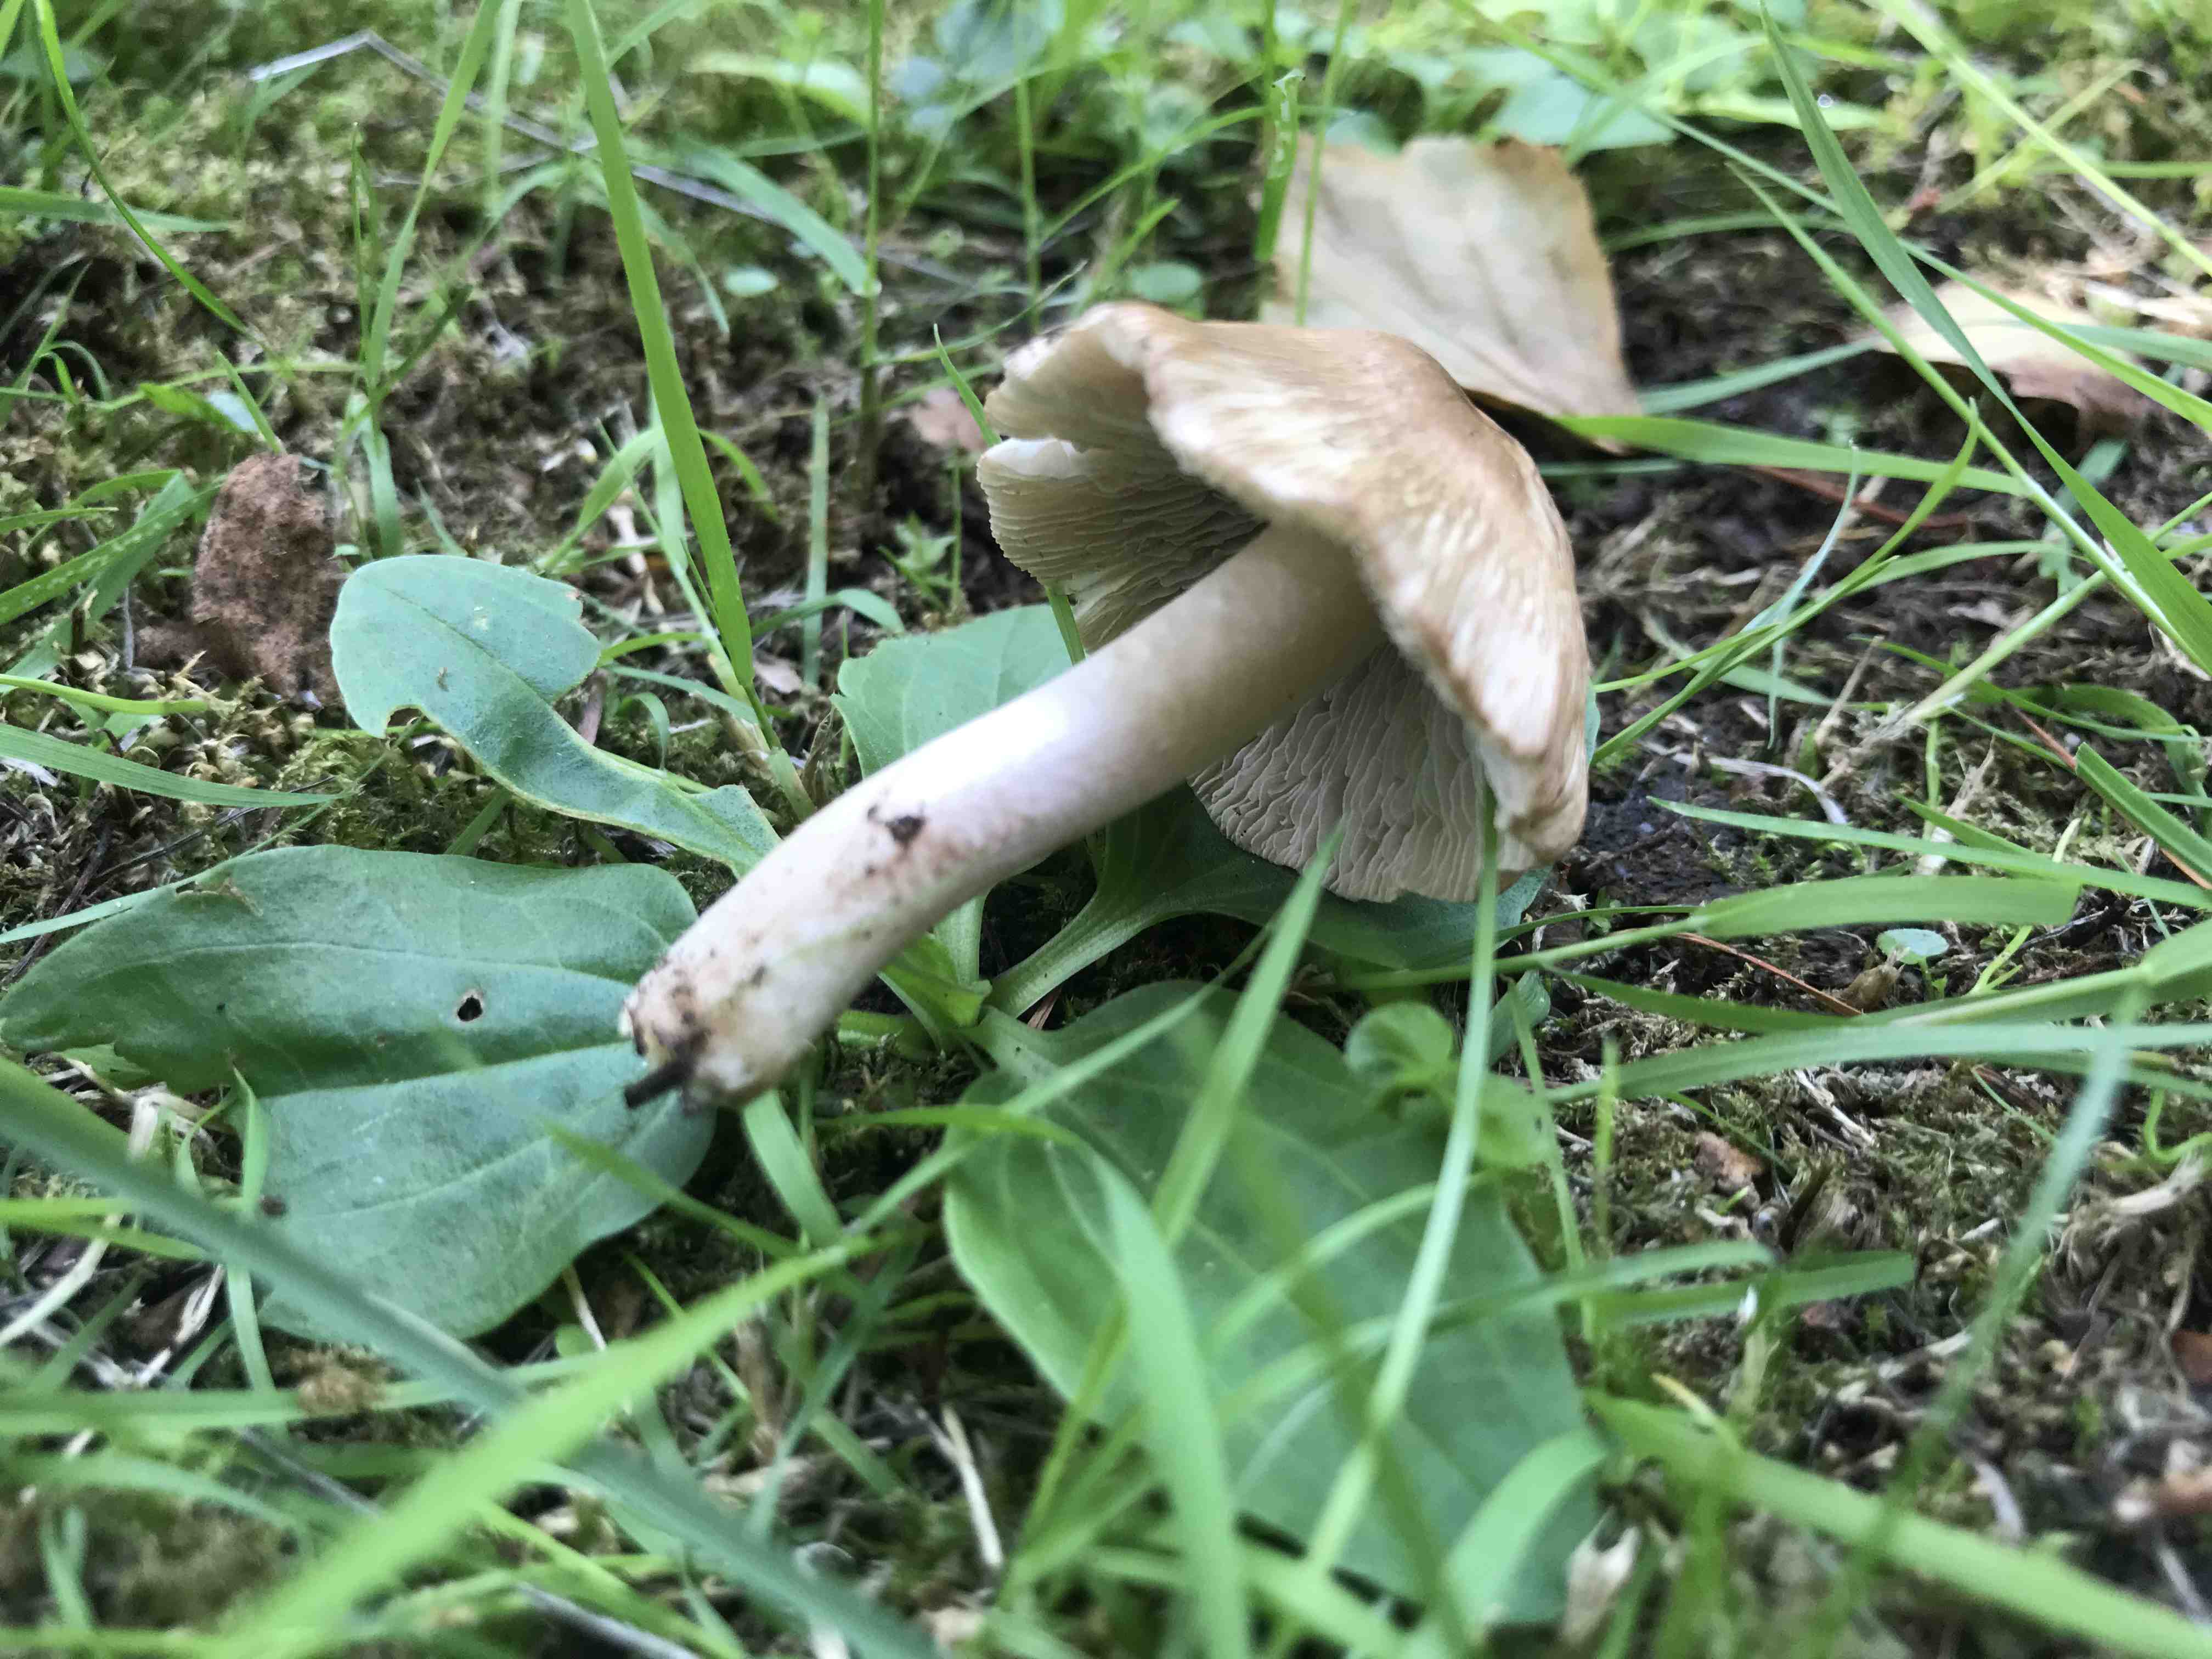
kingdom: Fungi
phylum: Basidiomycota
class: Agaricomycetes
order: Agaricales
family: Inocybaceae
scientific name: Inocybaceae
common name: trævlhatfamilien
